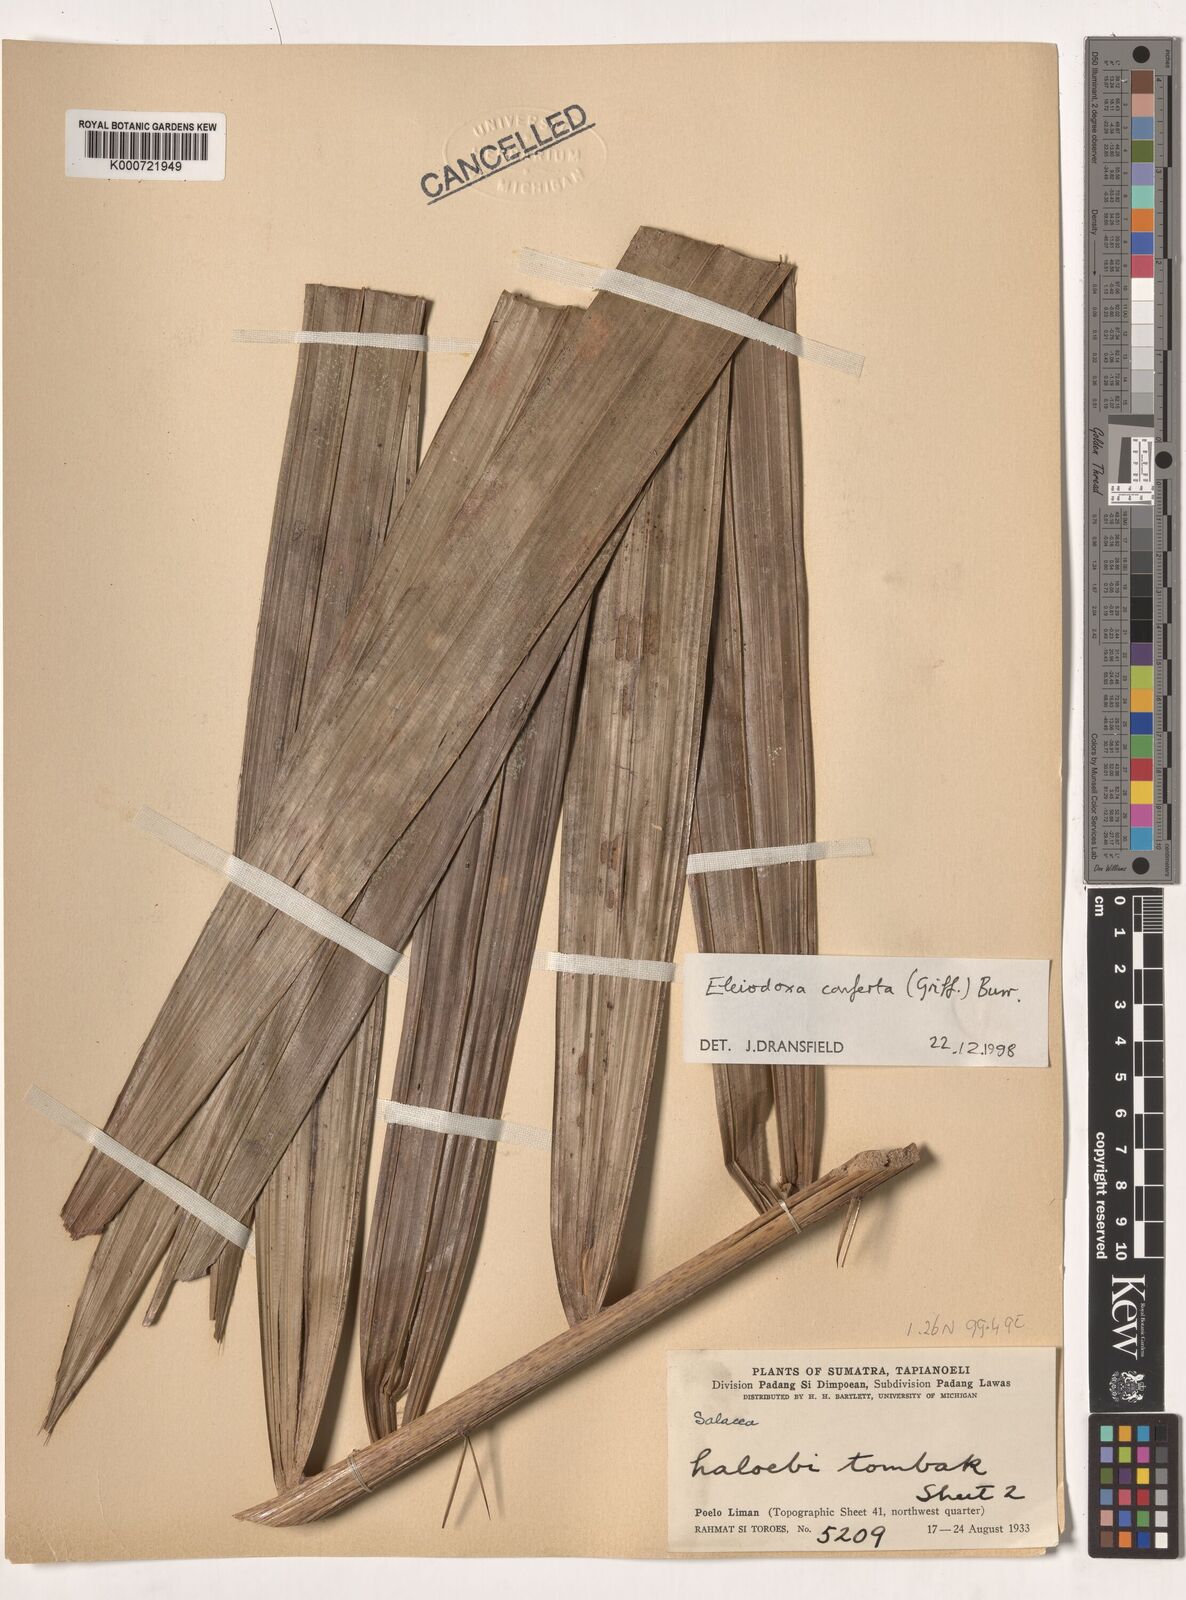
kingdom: Plantae
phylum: Tracheophyta
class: Liliopsida
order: Arecales
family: Arecaceae
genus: Eleiodoxa
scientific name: Eleiodoxa conferta
